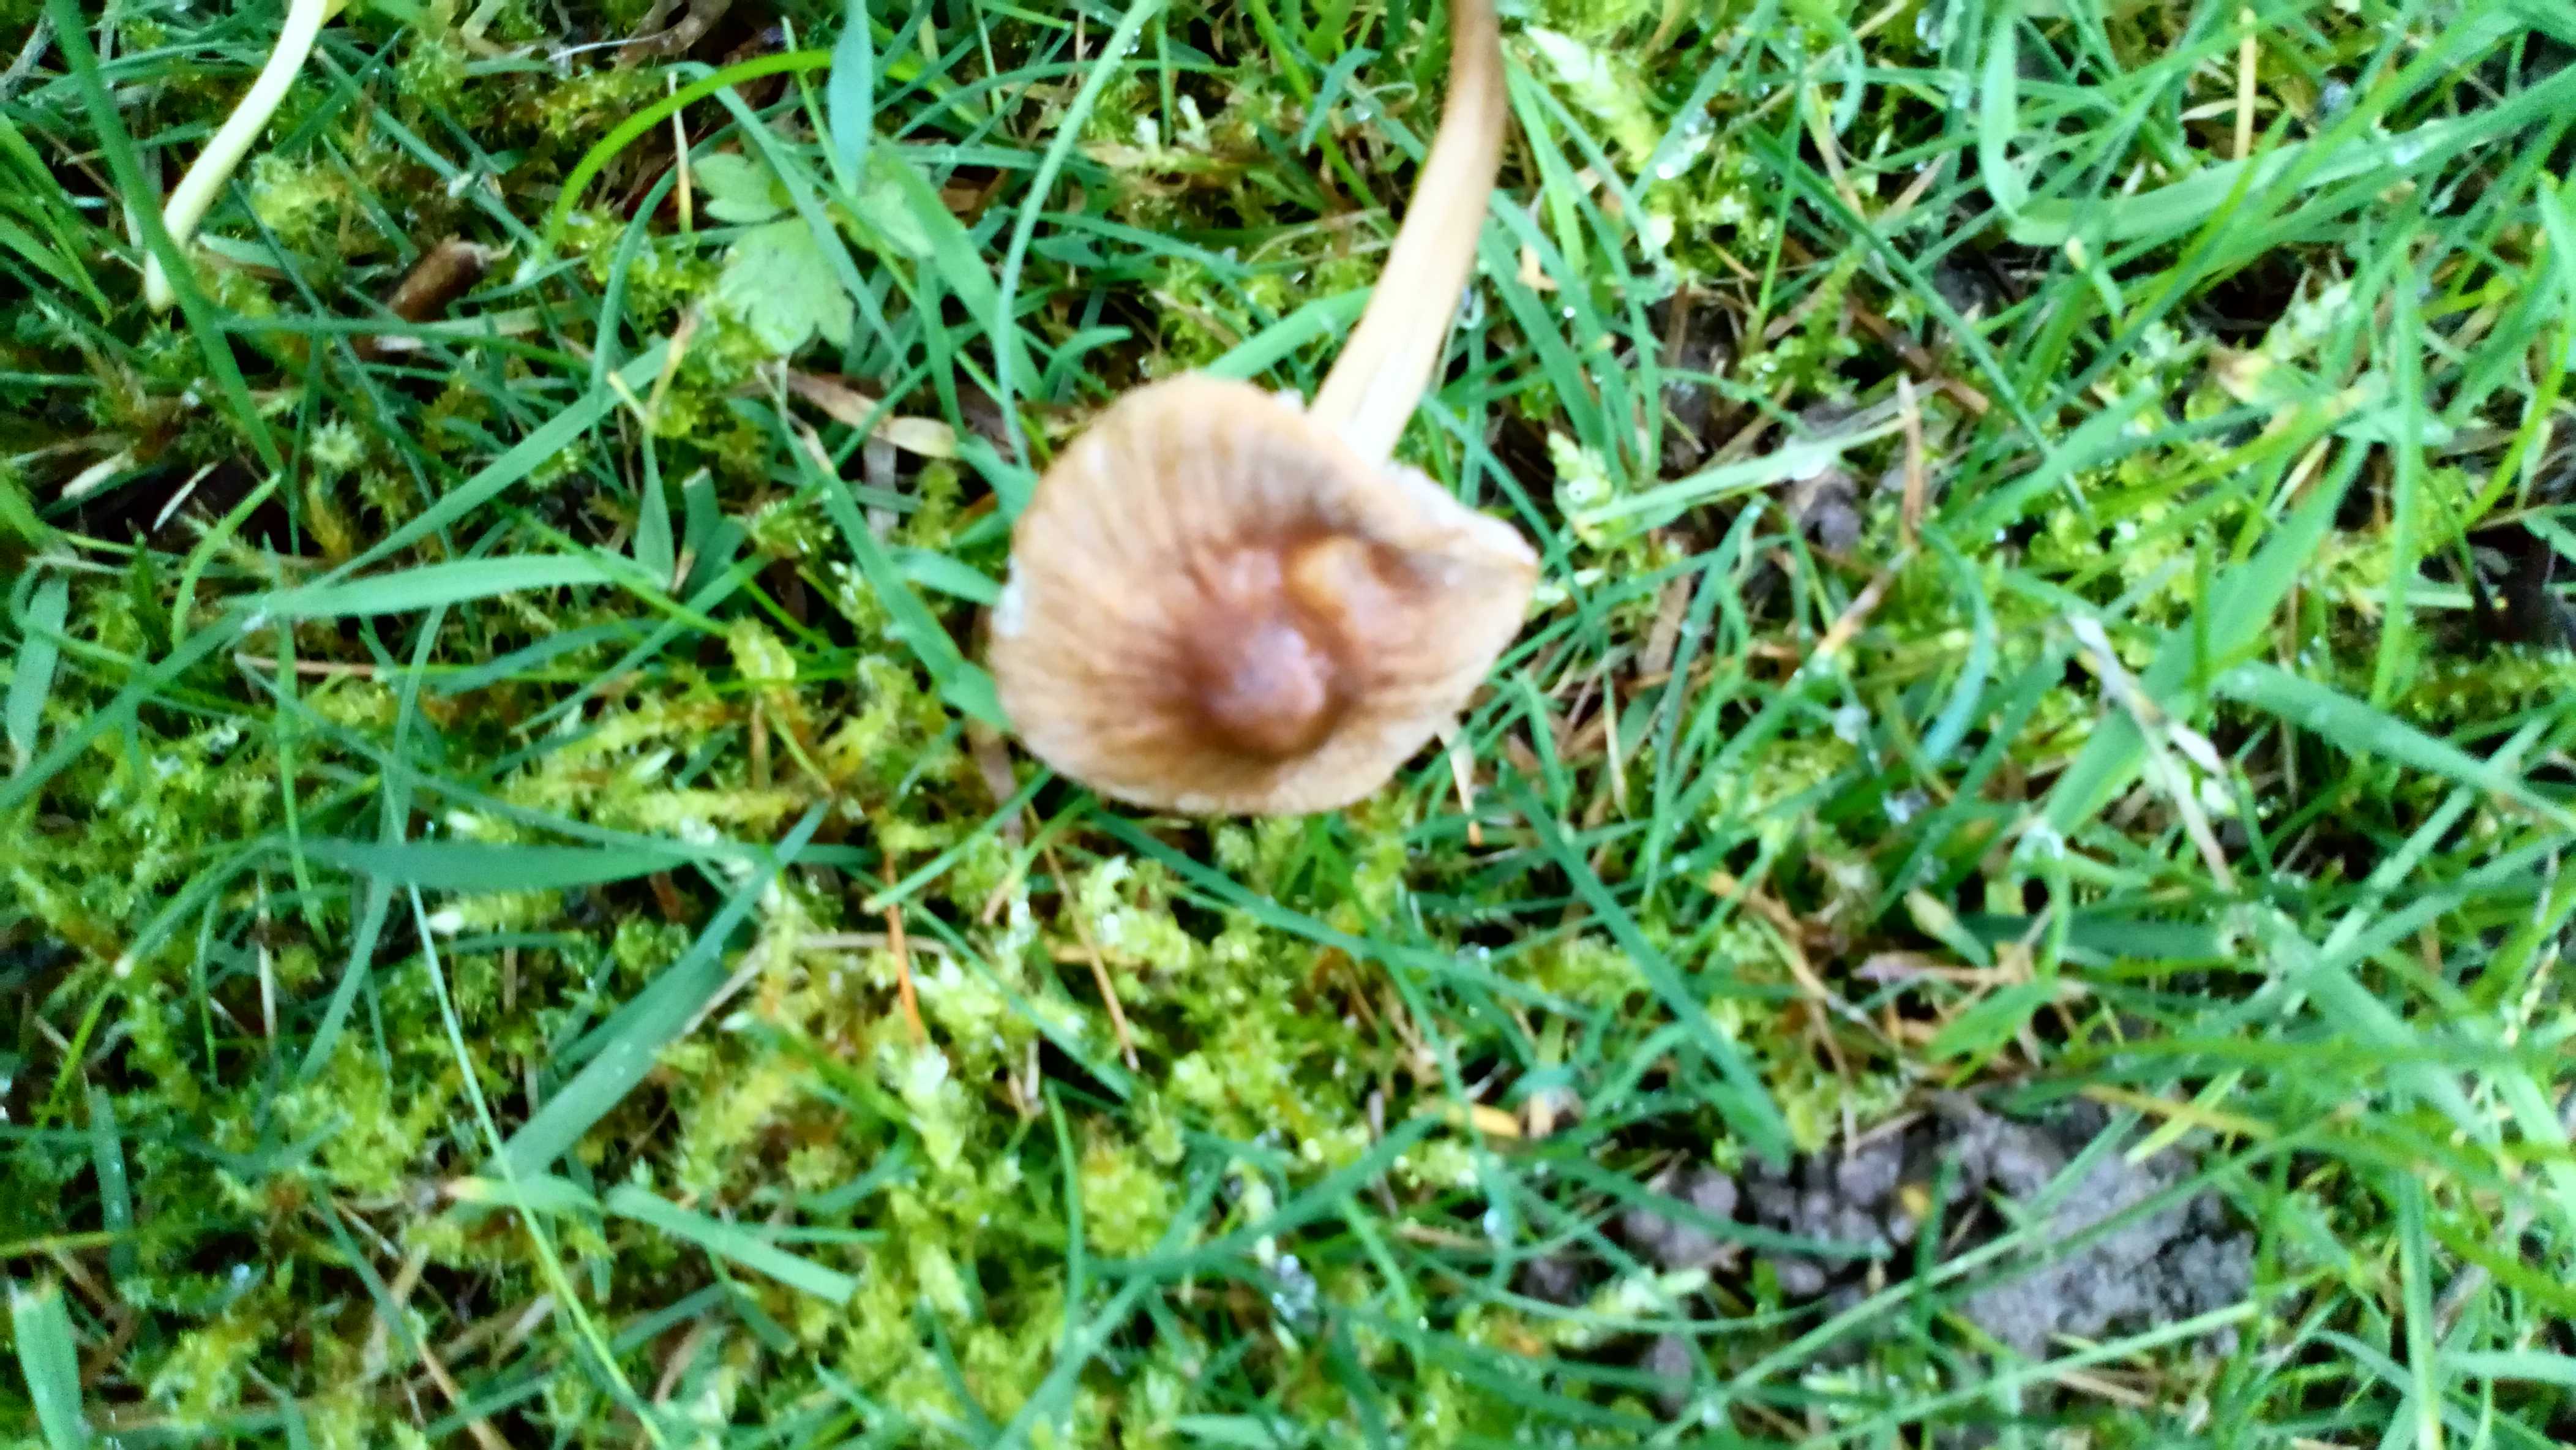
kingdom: Fungi
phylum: Basidiomycota
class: Agaricomycetes
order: Agaricales
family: Mycenaceae
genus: Mycena
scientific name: Mycena
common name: huesvamp
